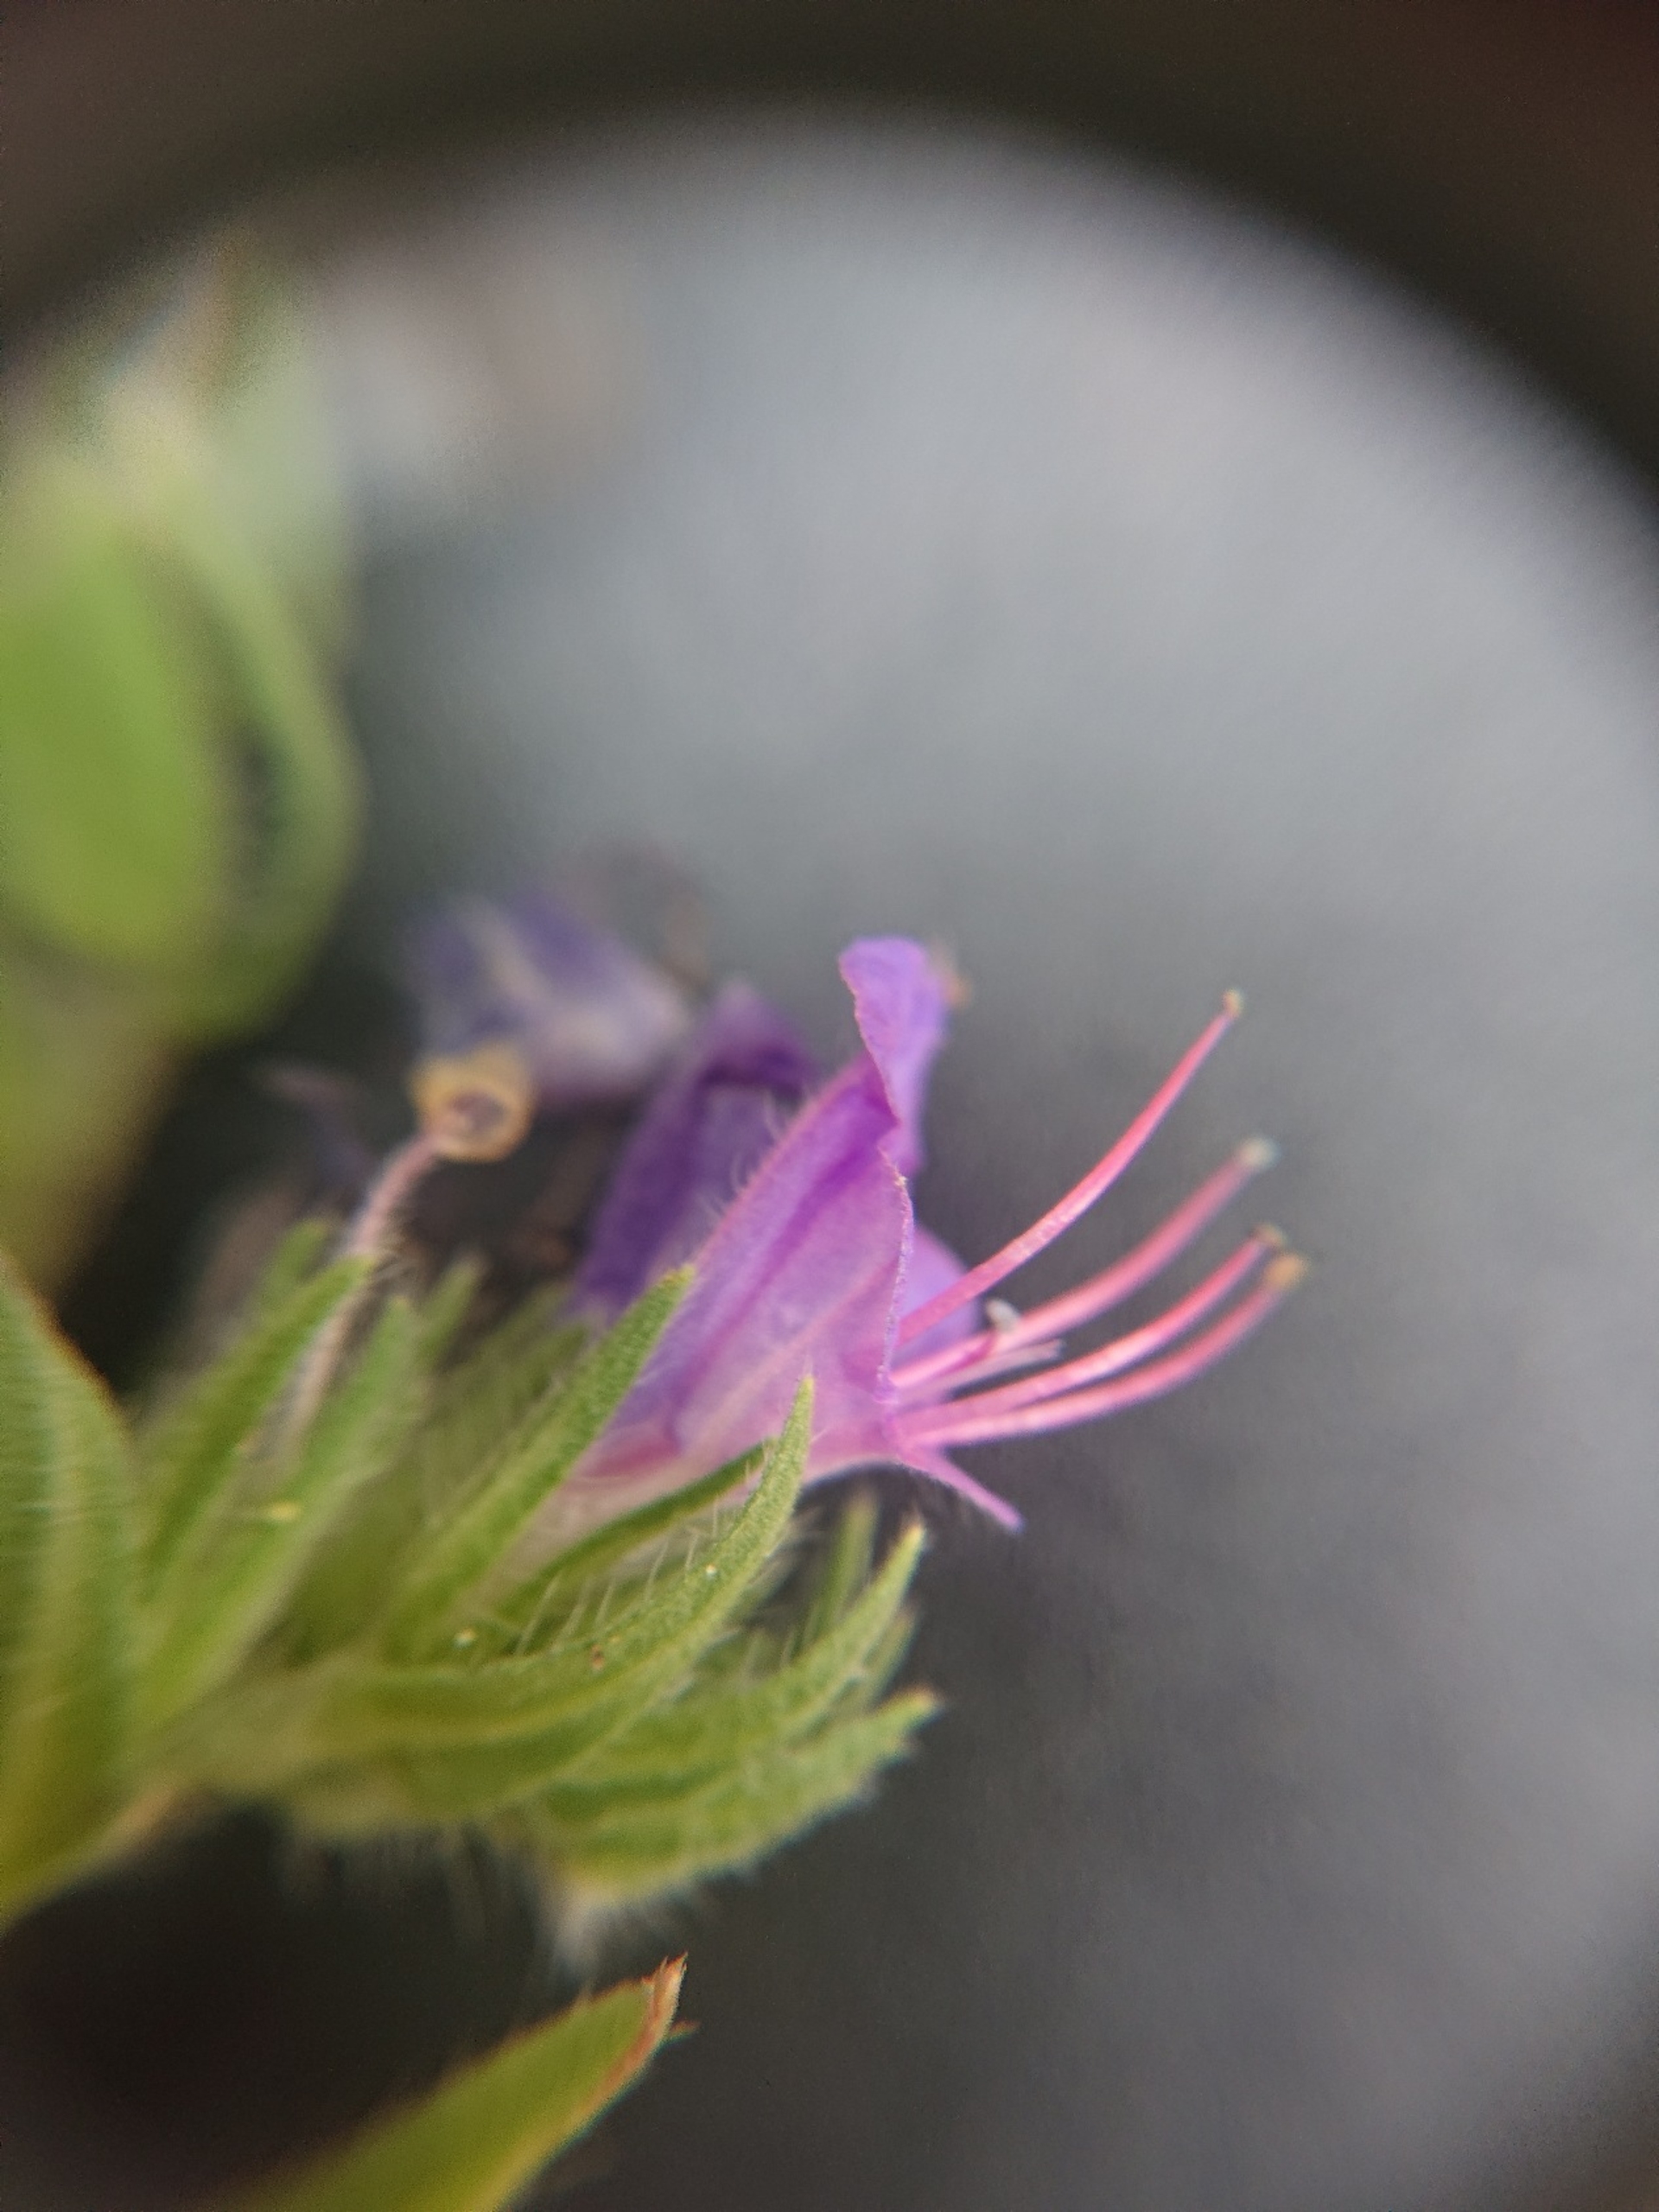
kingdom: Plantae
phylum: Tracheophyta
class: Magnoliopsida
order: Boraginales
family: Boraginaceae
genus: Echium
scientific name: Echium vulgare
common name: Slangehoved
